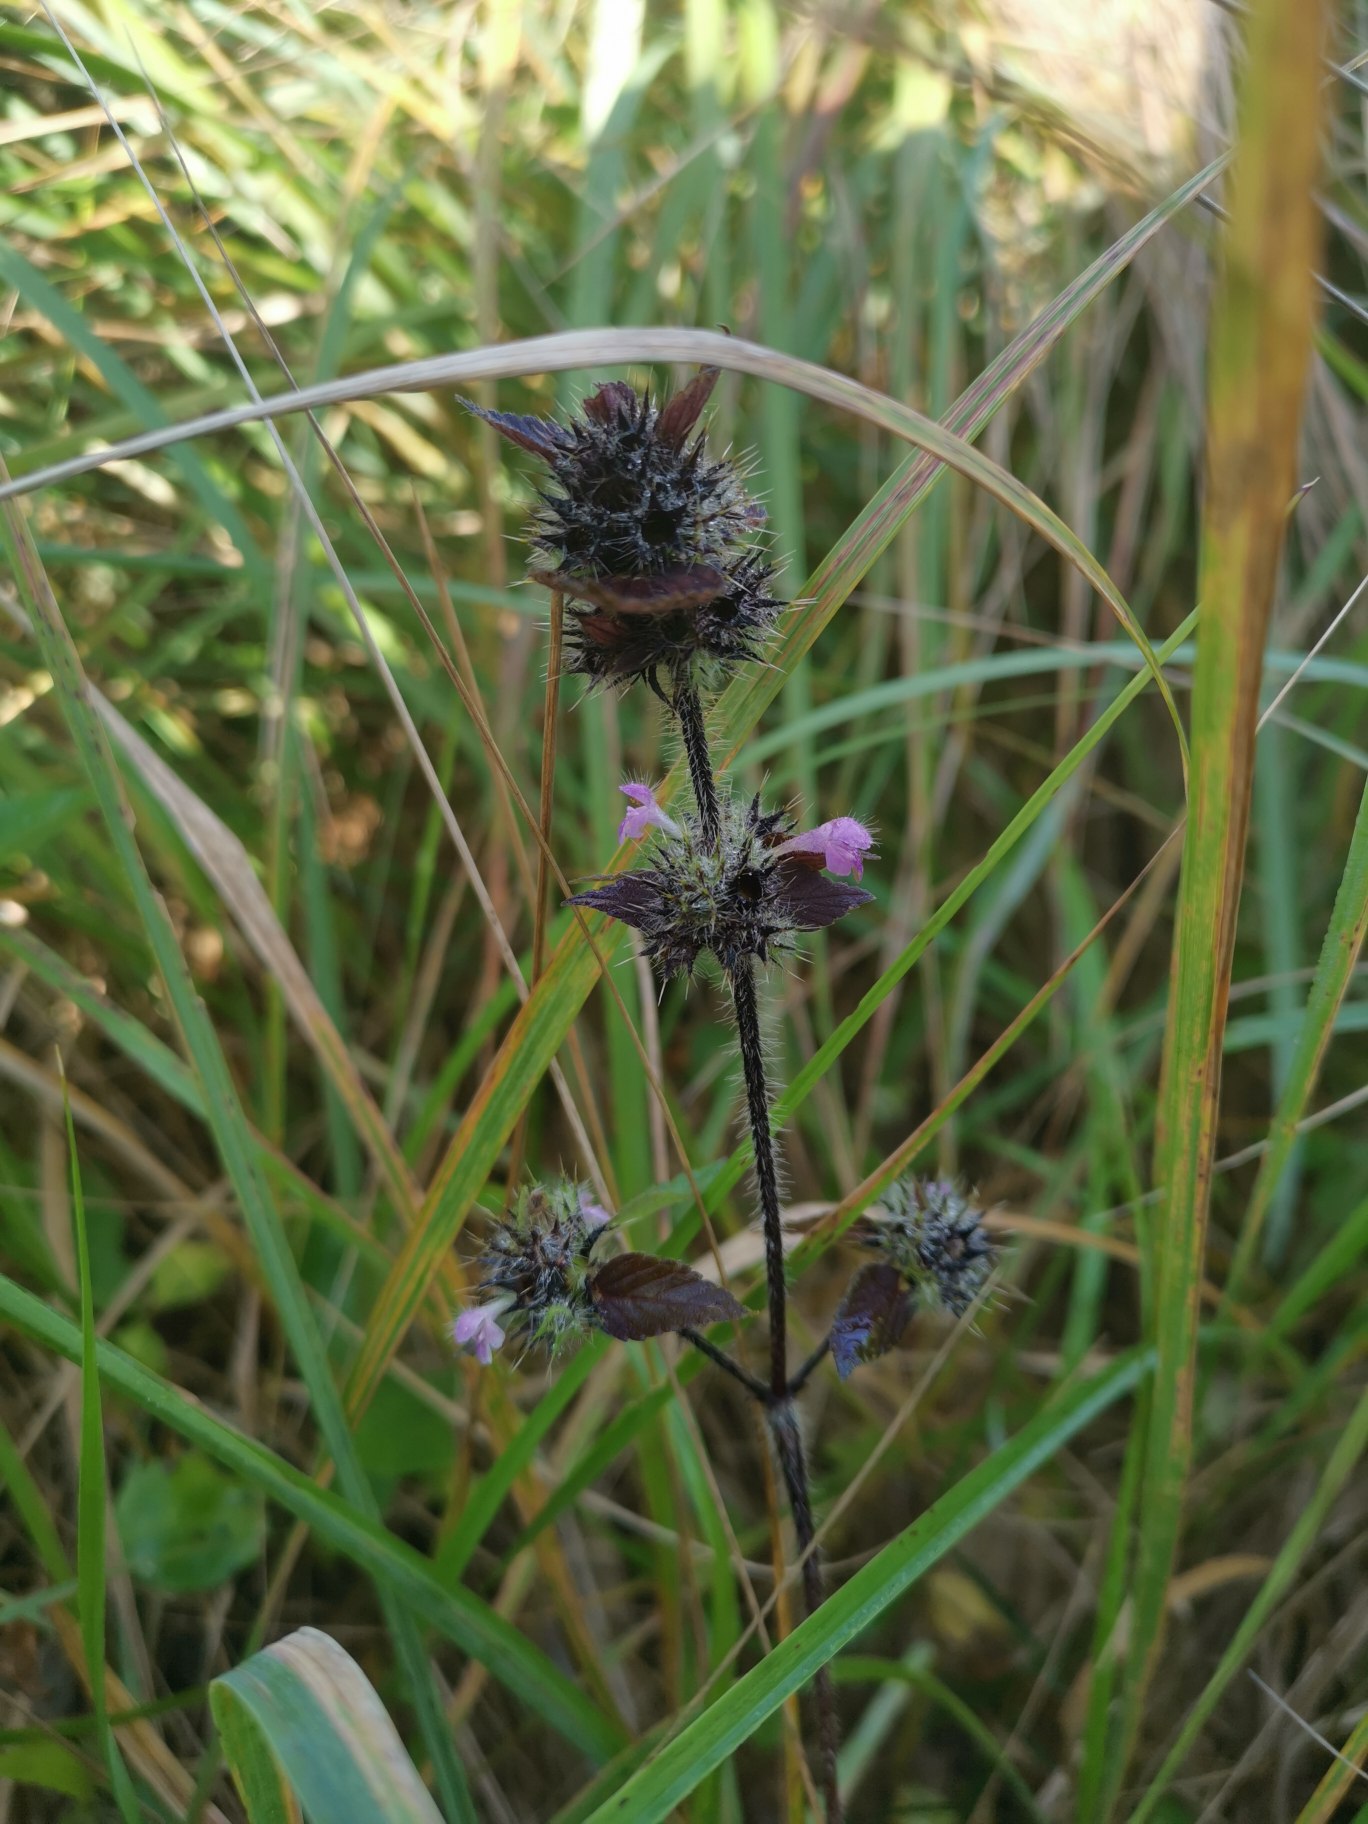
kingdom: Plantae
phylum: Tracheophyta
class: Magnoliopsida
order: Lamiales
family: Lamiaceae
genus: Galeopsis
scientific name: Galeopsis bifida
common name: Skov-hanekro
